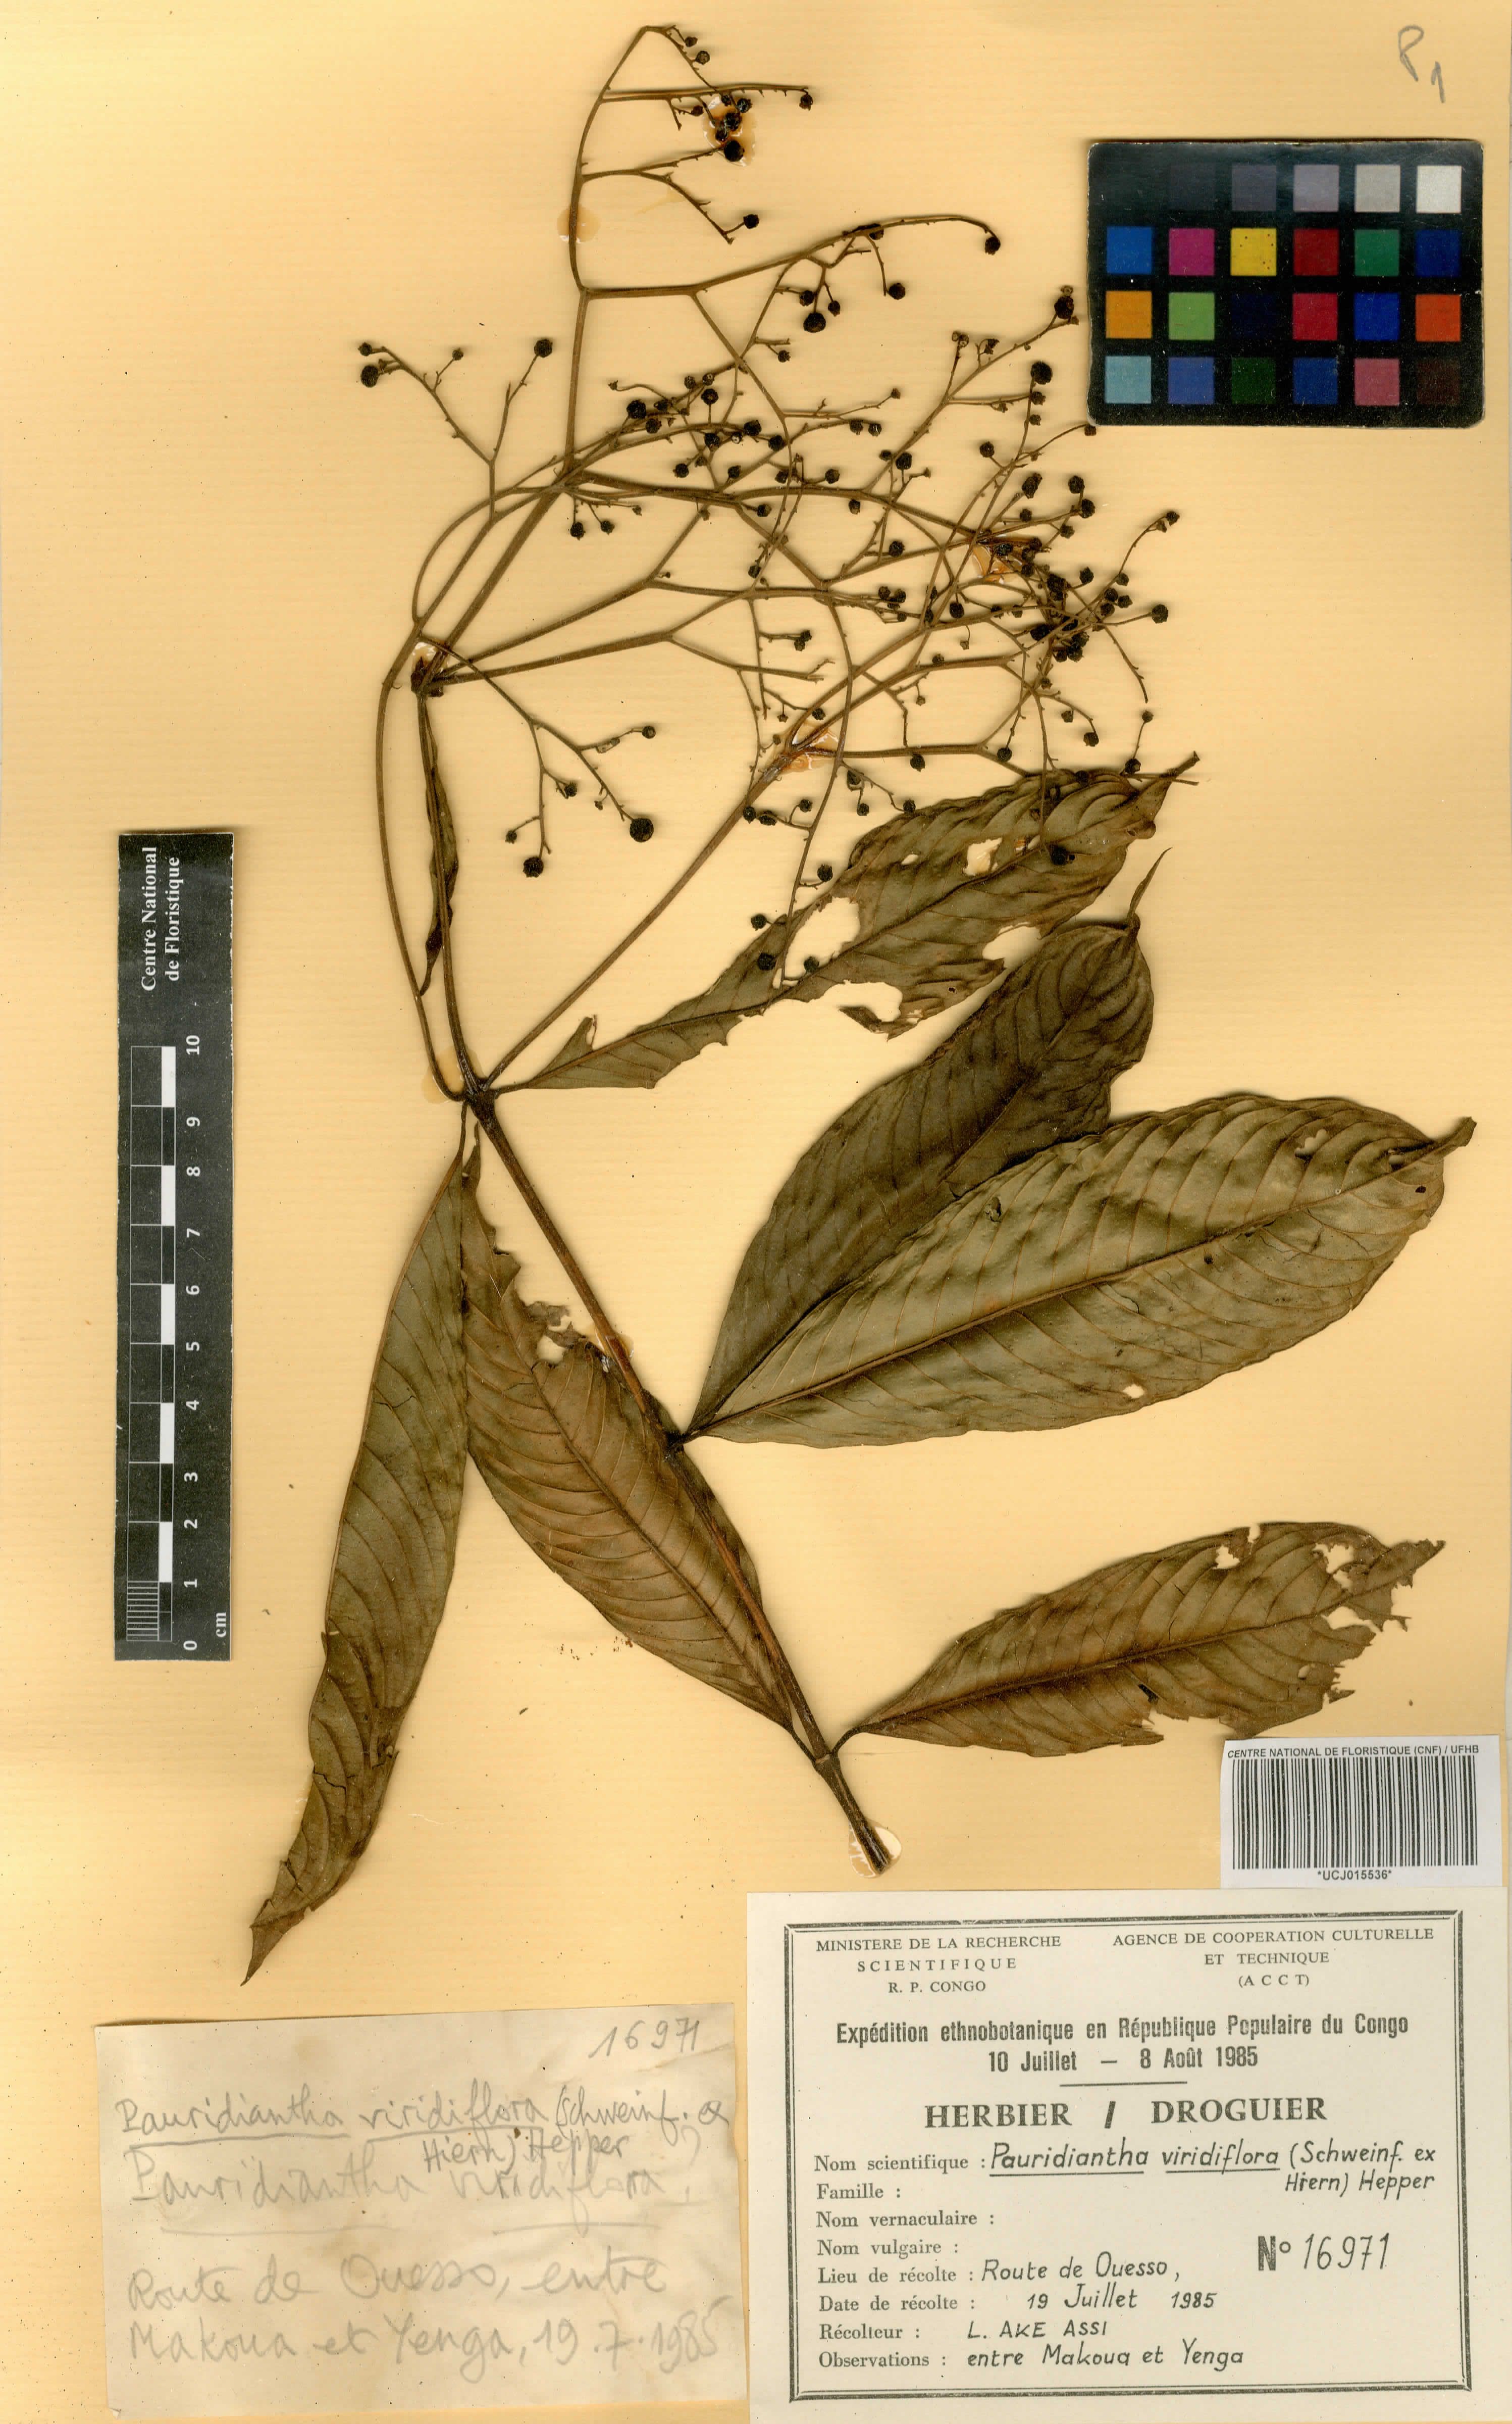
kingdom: Plantae
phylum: Tracheophyta
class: Magnoliopsida
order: Gentianales
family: Rubiaceae
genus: Pauridiantha
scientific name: Pauridiantha viridiflora
